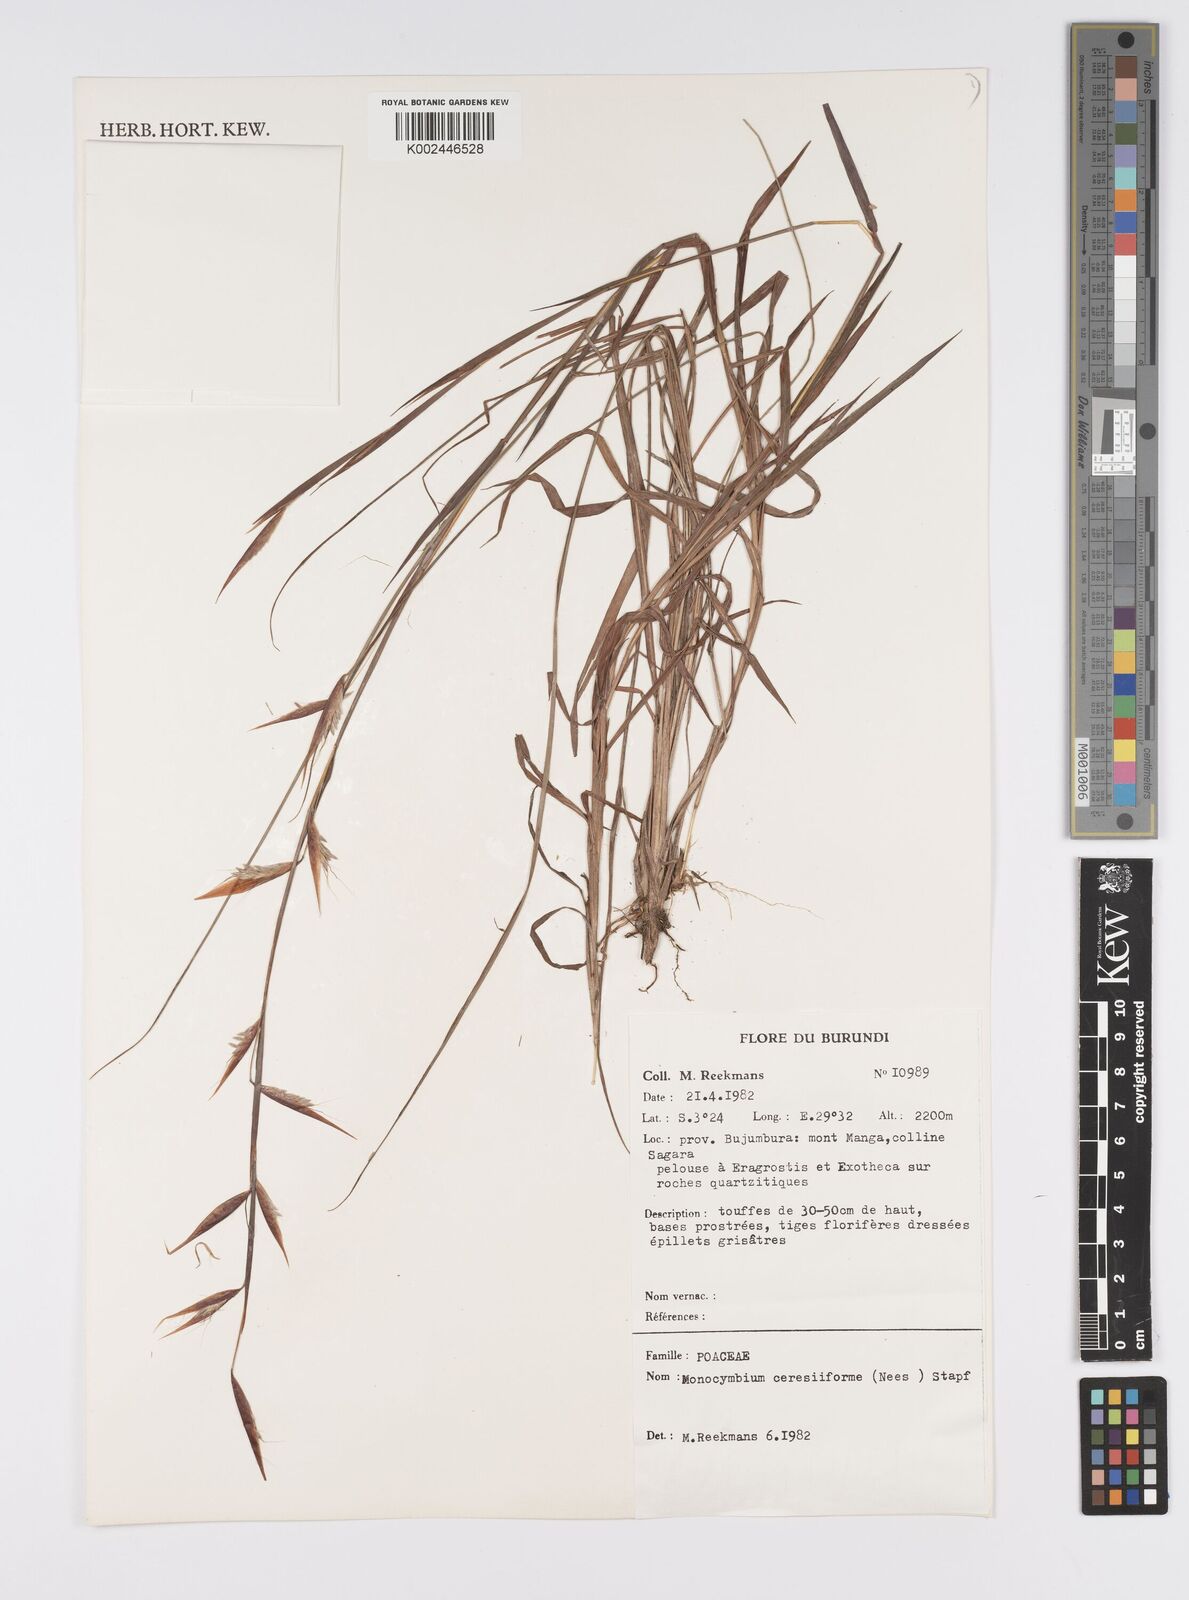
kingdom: Plantae
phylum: Tracheophyta
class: Liliopsida
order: Poales
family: Poaceae
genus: Monocymbium
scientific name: Monocymbium ceresiiforme
